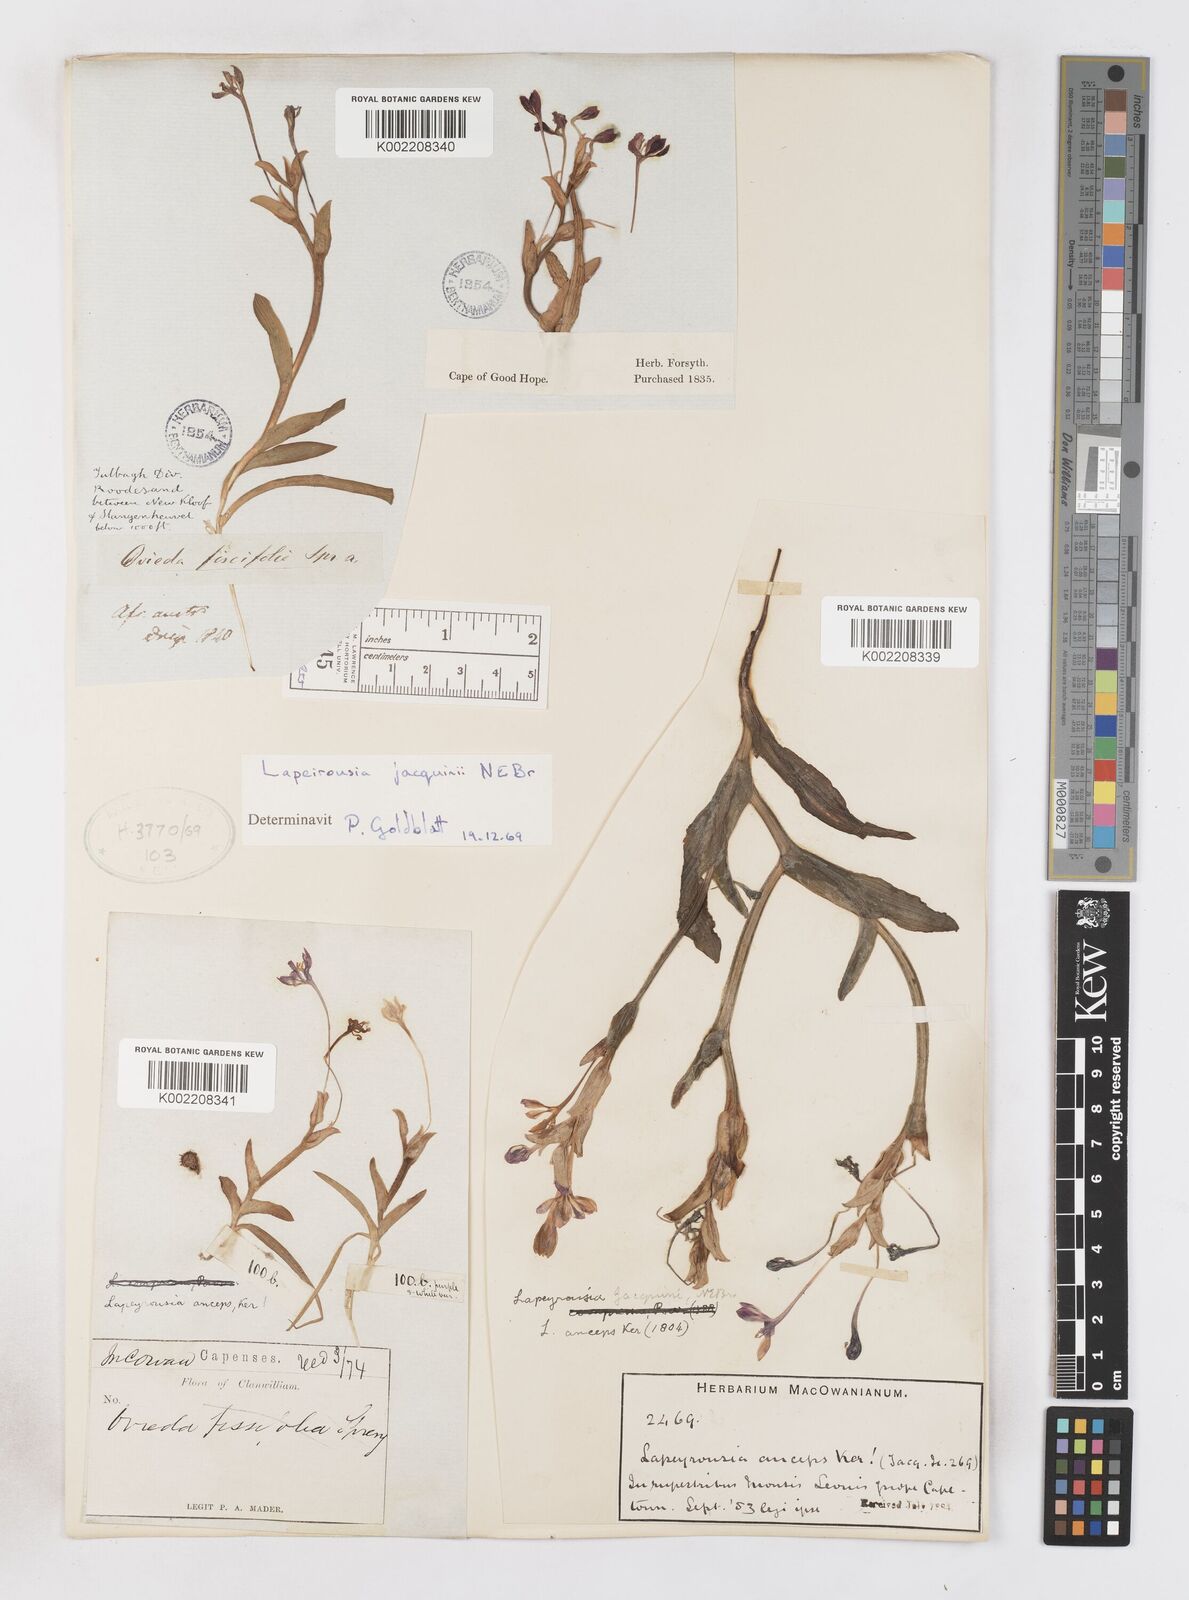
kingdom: Plantae
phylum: Tracheophyta
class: Liliopsida
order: Asparagales
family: Iridaceae
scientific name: Iridaceae
